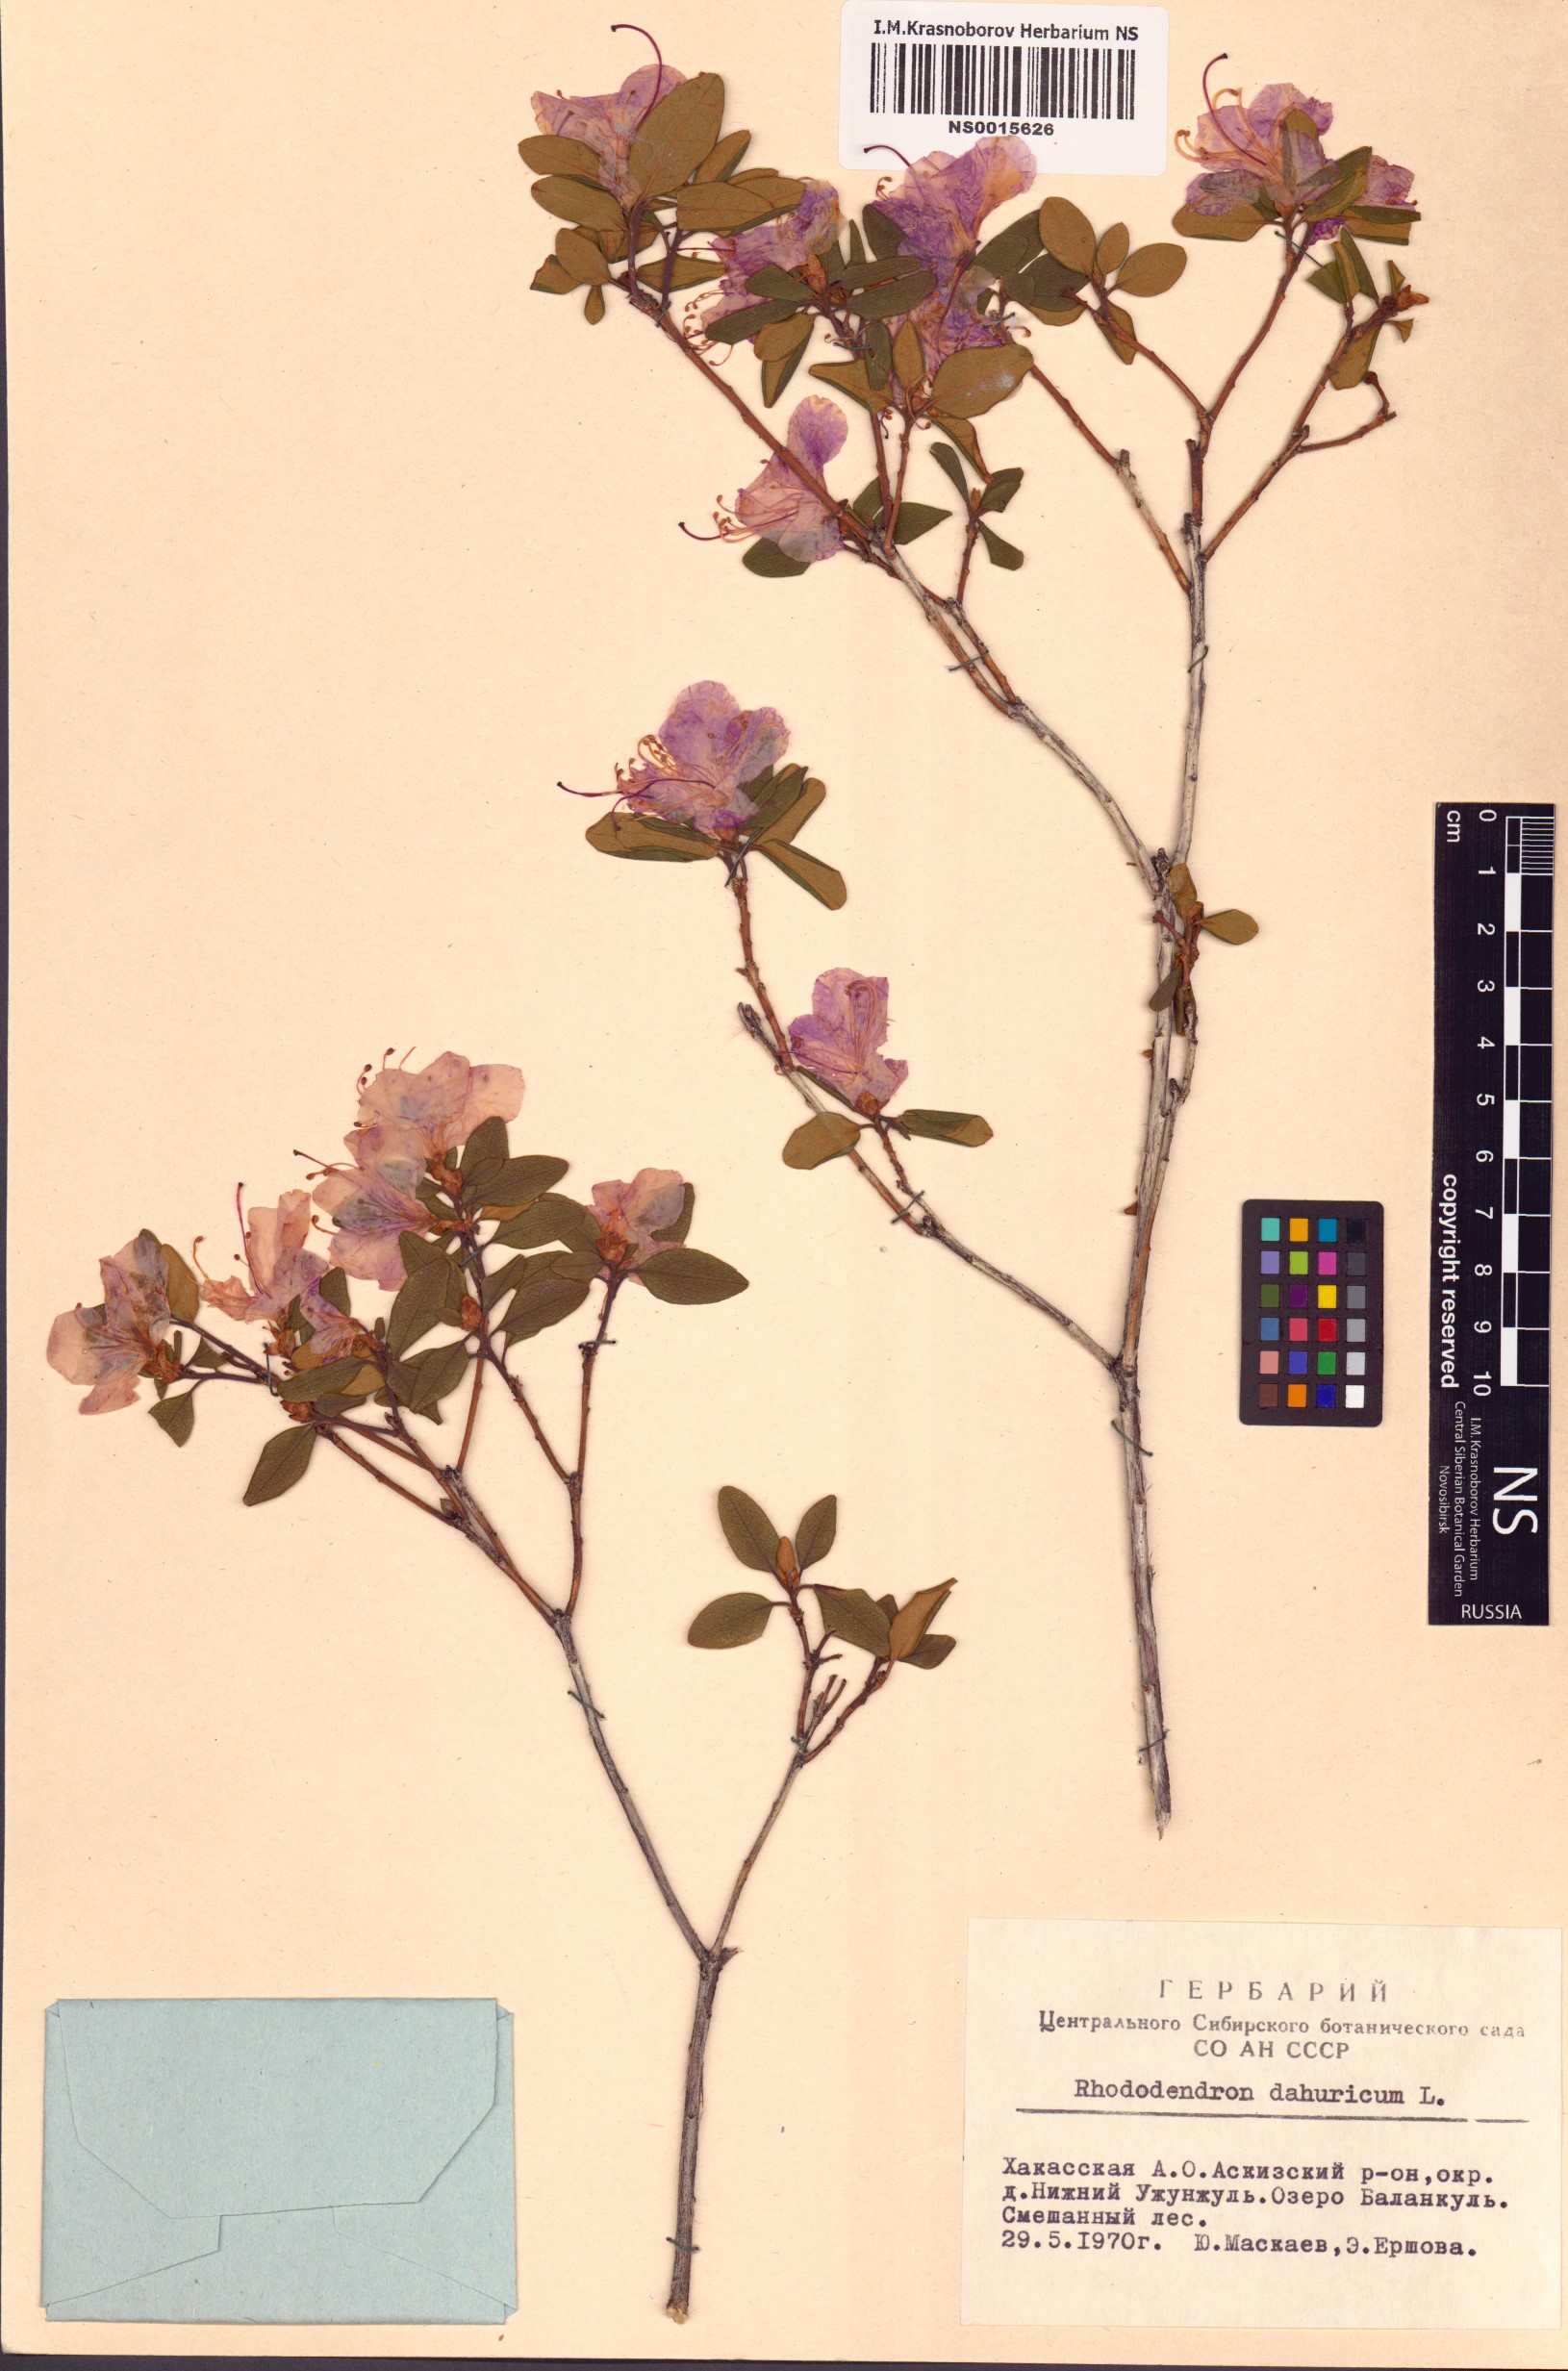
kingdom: Plantae
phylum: Tracheophyta
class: Magnoliopsida
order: Ericales
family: Ericaceae
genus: Rhododendron
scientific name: Rhododendron dauricum
